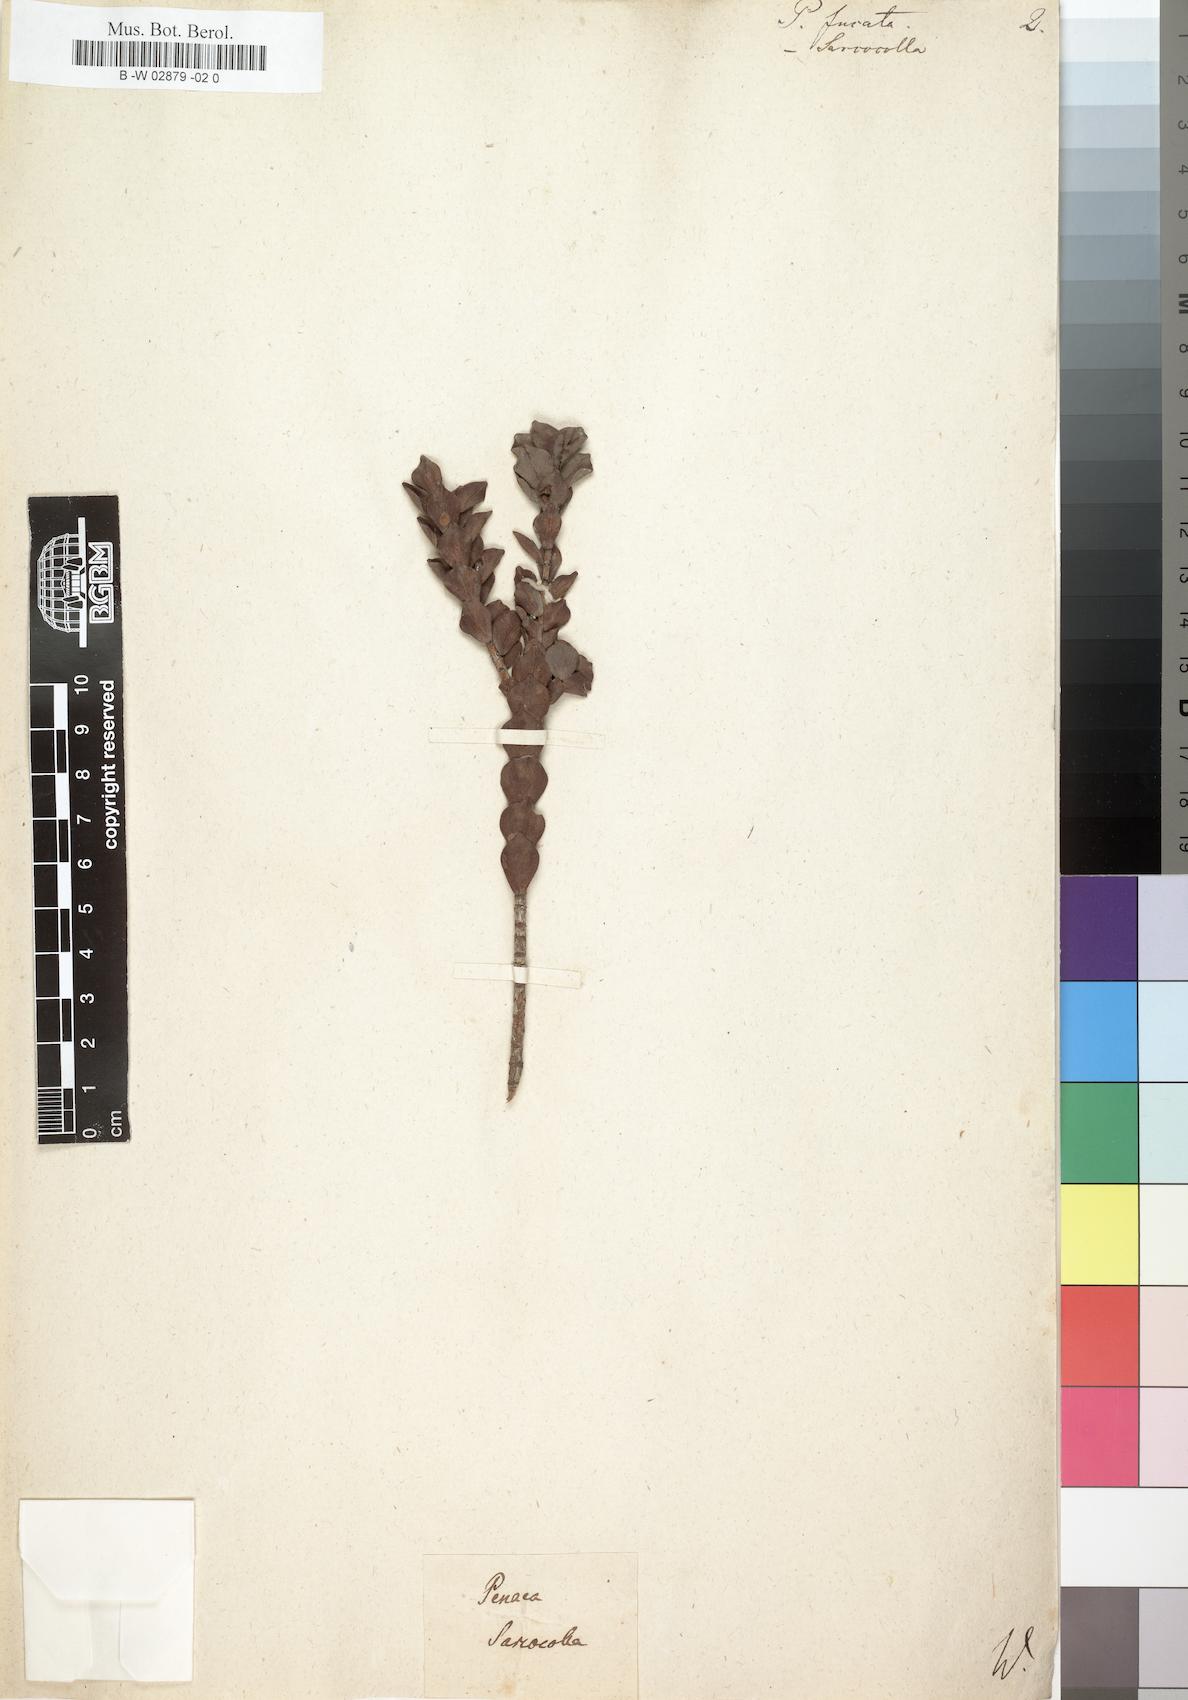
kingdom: Plantae
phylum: Tracheophyta
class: Magnoliopsida
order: Myrtales
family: Penaeaceae
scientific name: Penaeaceae
